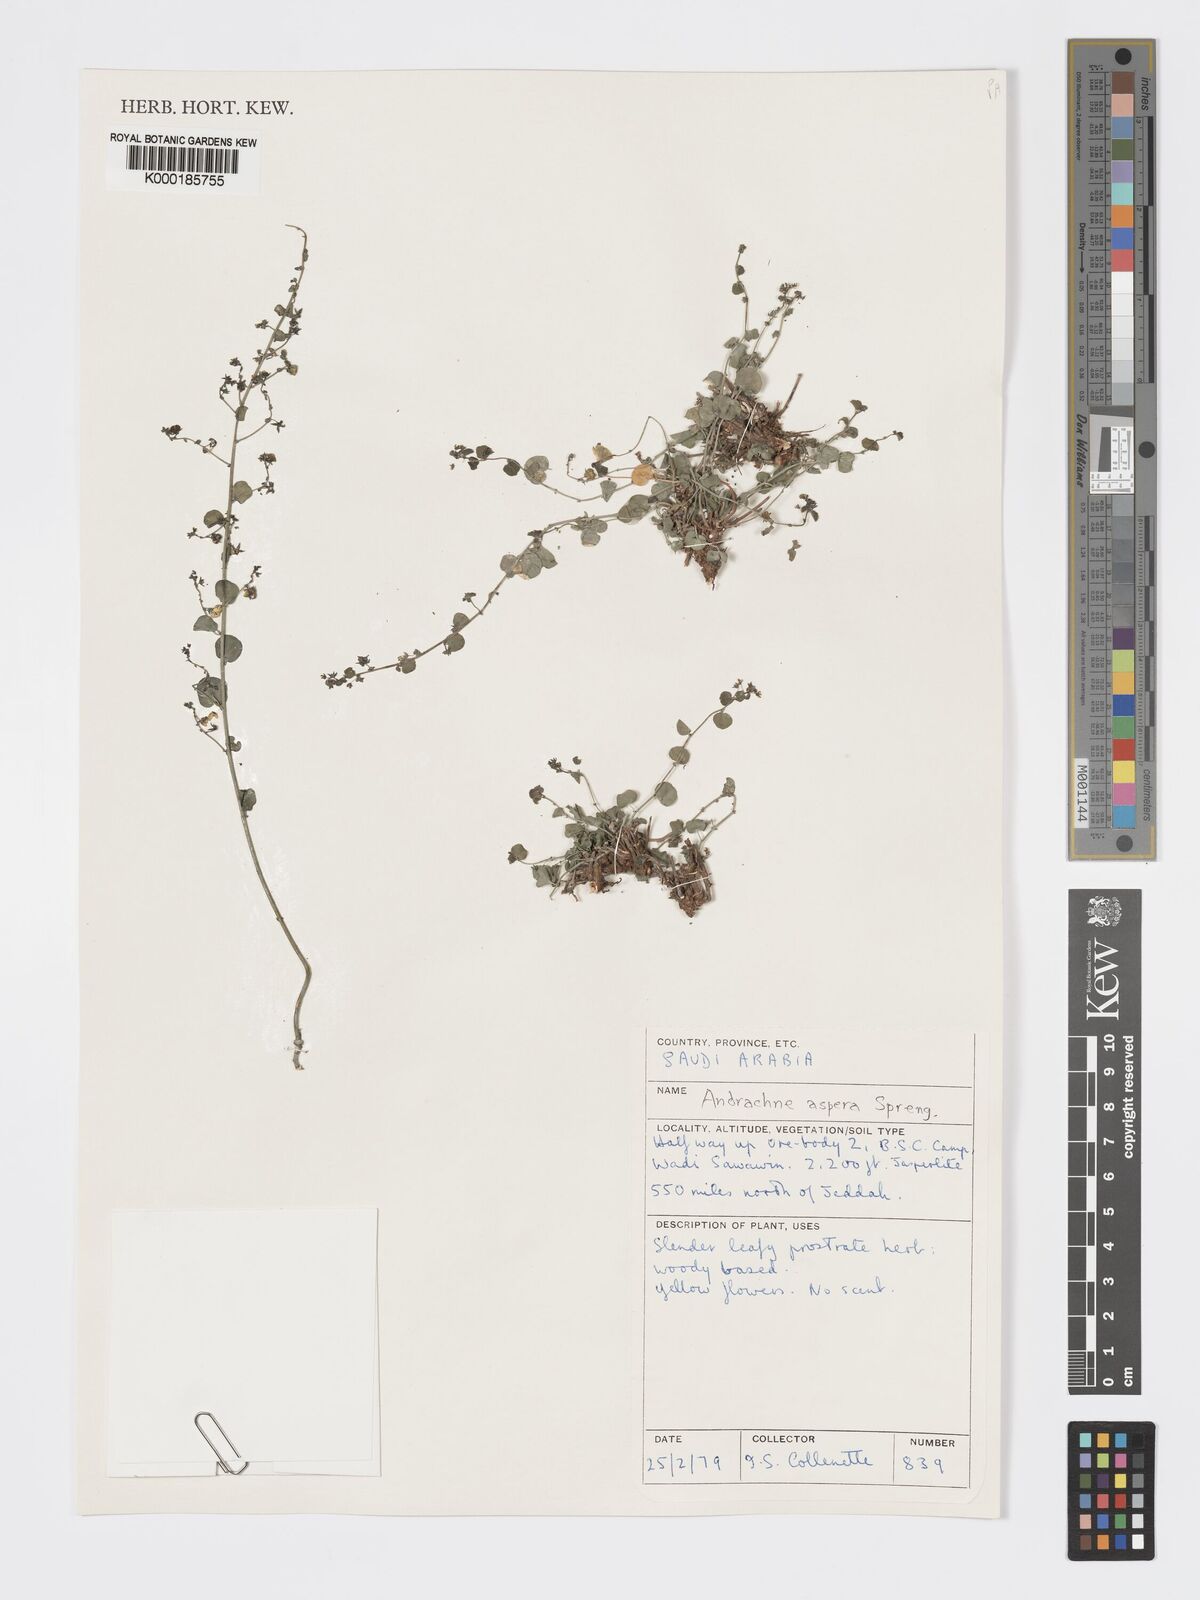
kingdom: Plantae
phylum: Tracheophyta
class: Magnoliopsida
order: Malpighiales
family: Phyllanthaceae
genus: Andrachne
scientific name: Andrachne aspera
